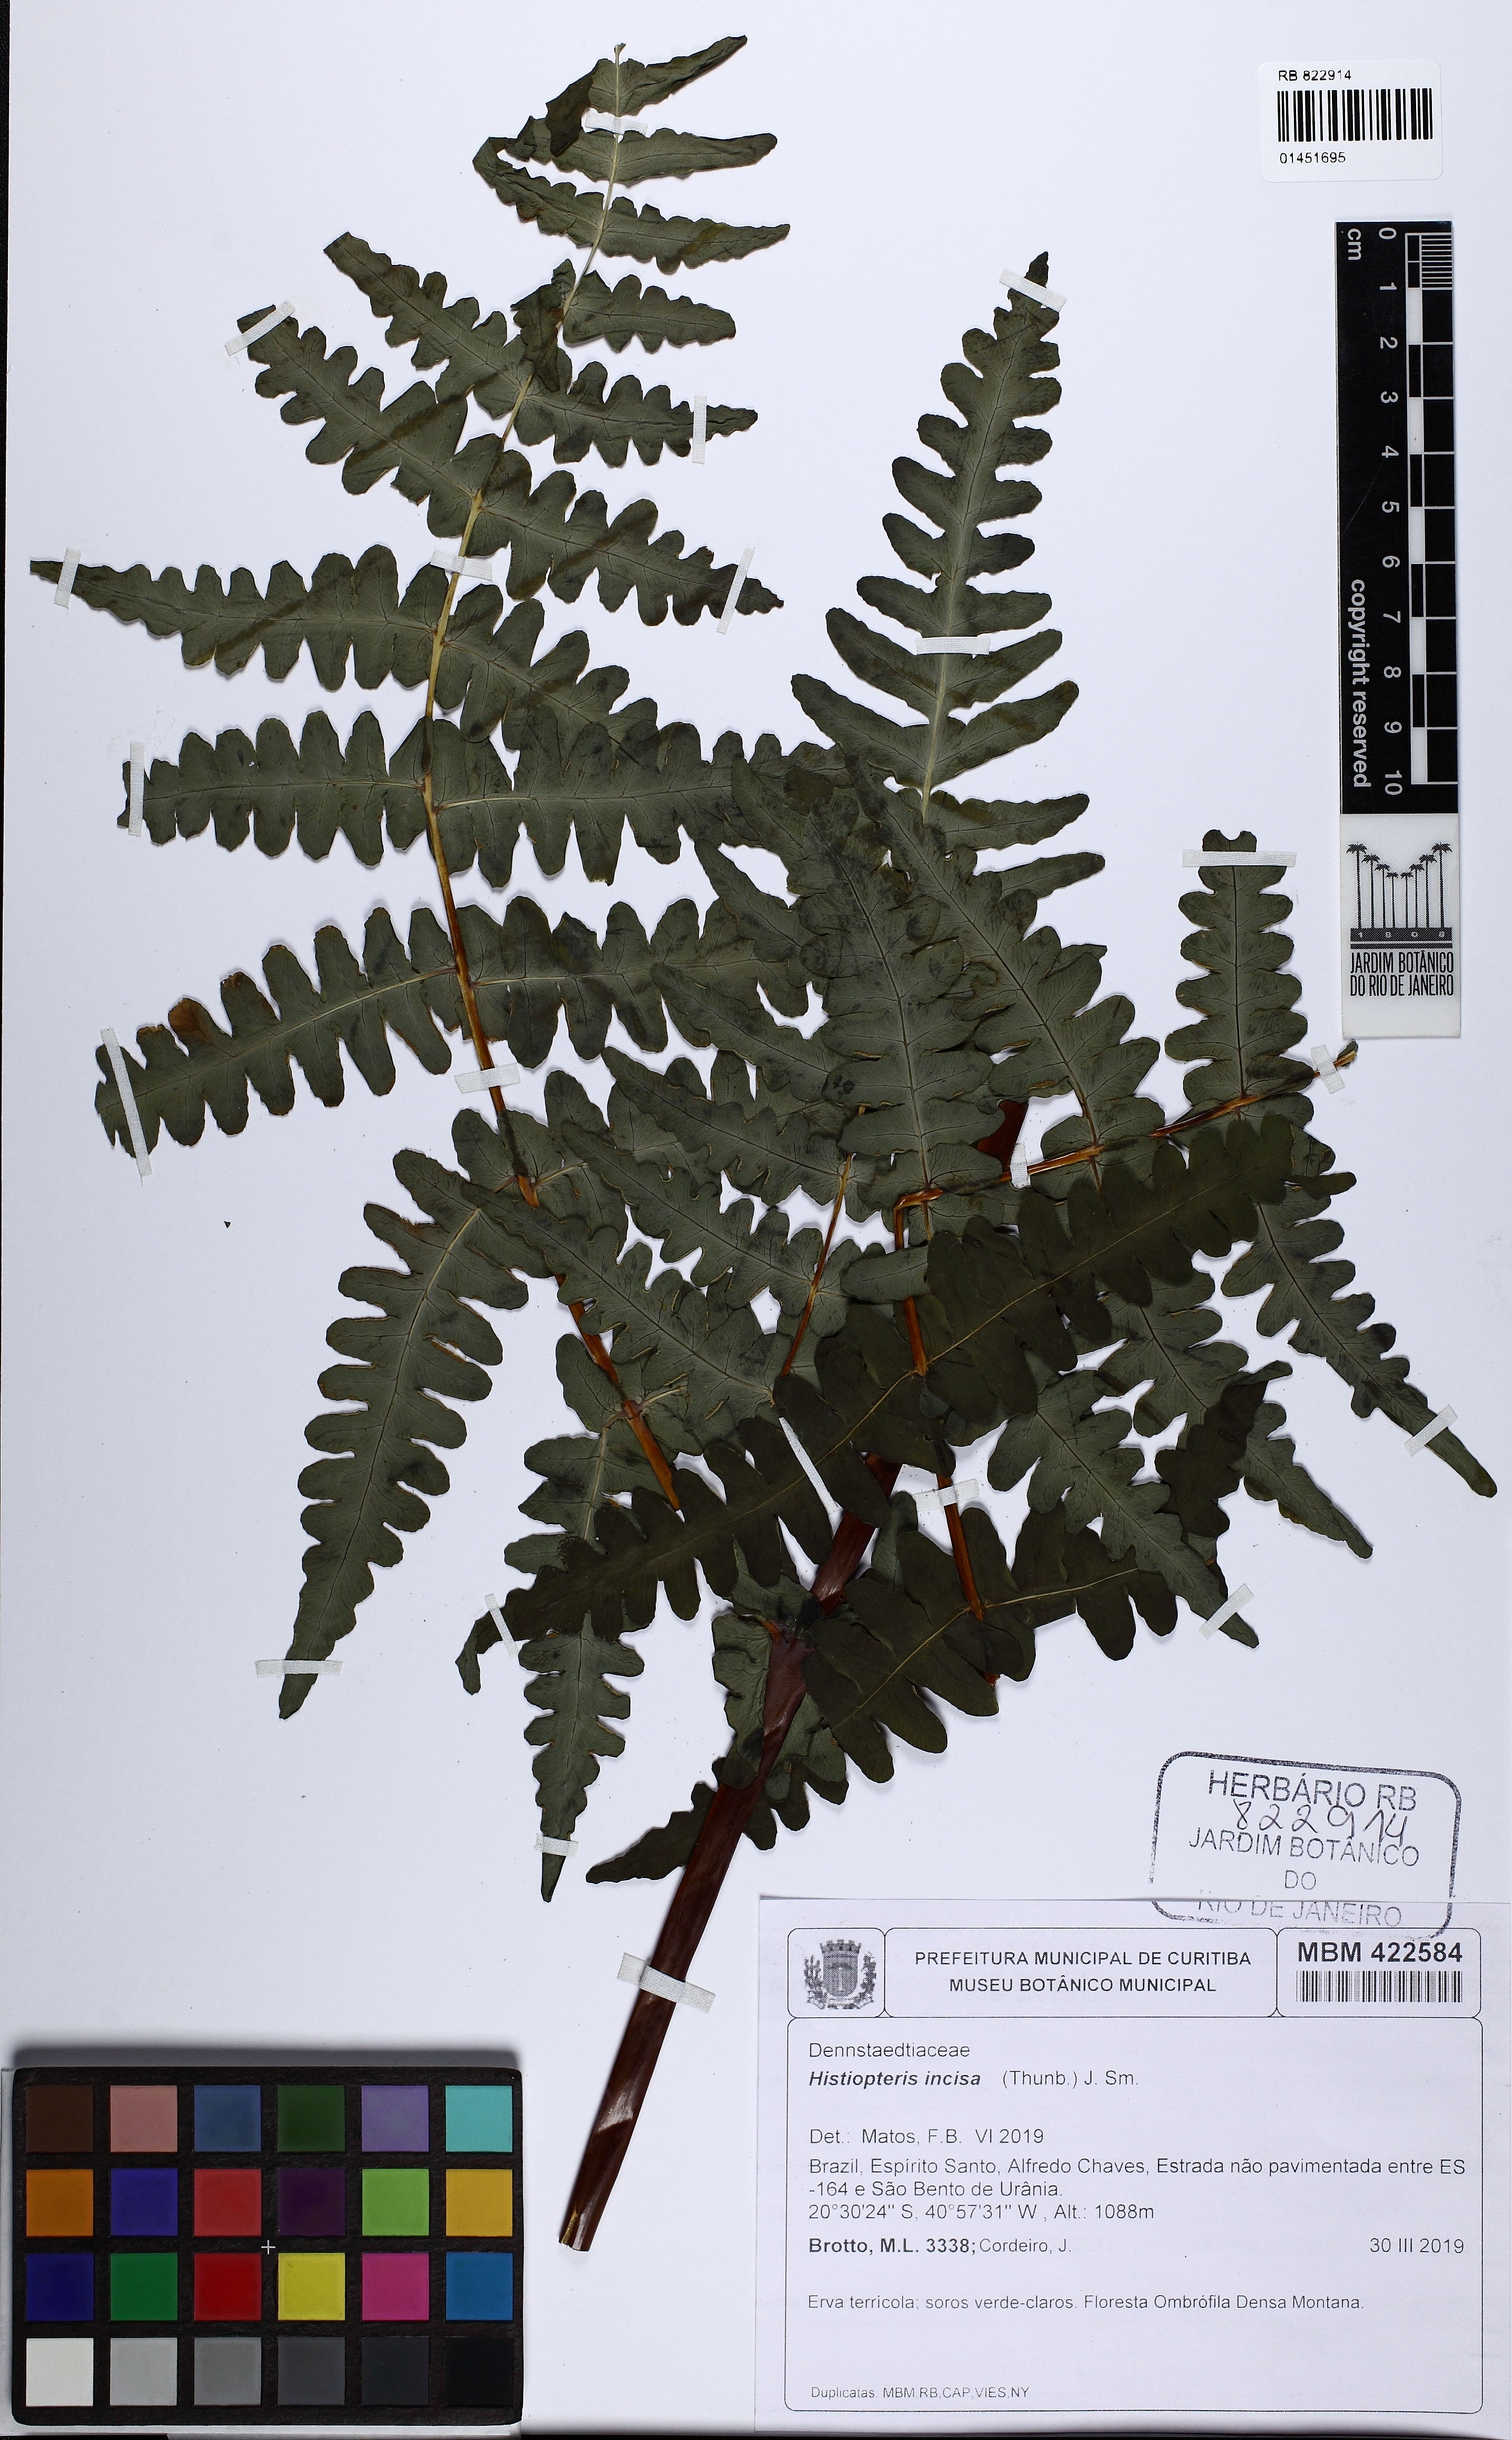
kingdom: Plantae
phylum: Tracheophyta
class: Polypodiopsida
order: Polypodiales
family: Dennstaedtiaceae
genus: Histiopteris
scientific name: Histiopteris incisa
